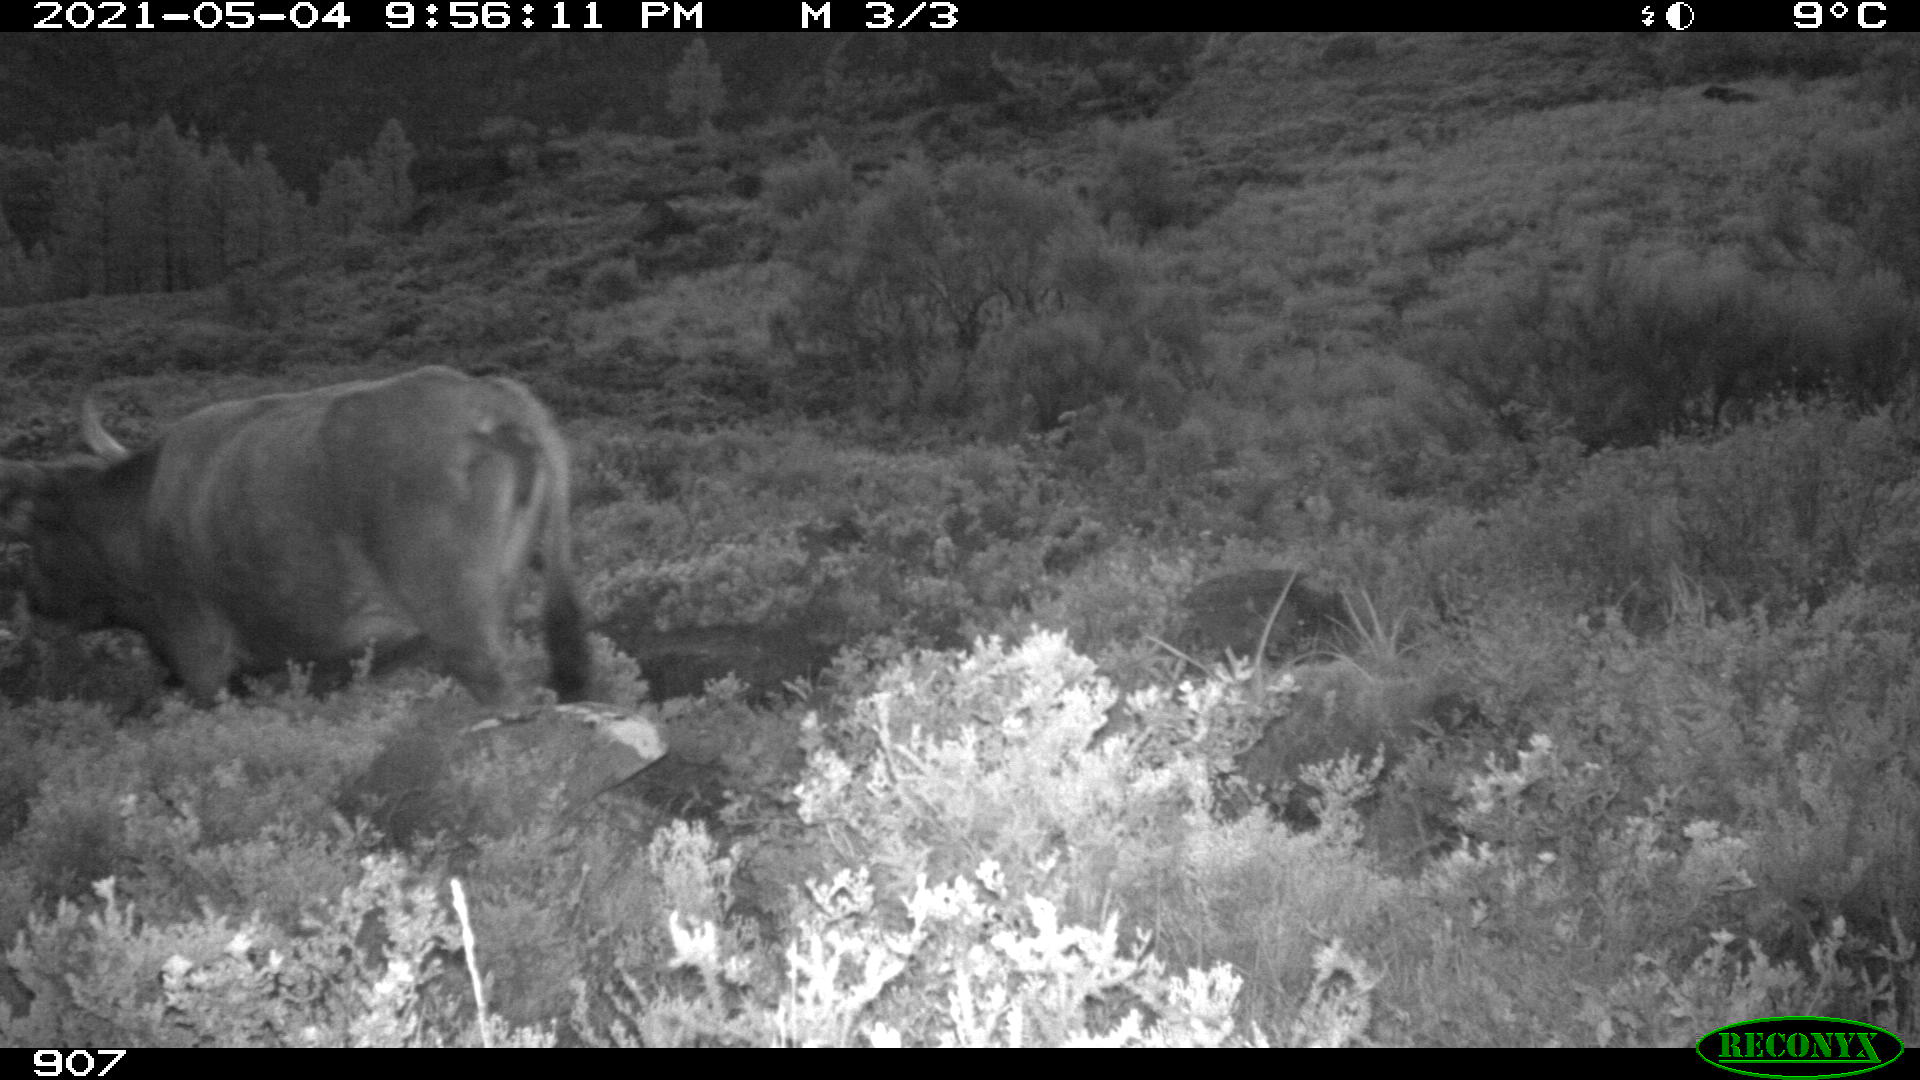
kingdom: Animalia
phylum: Chordata
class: Mammalia
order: Artiodactyla
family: Bovidae
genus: Bos
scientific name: Bos taurus
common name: Domesticated cattle
